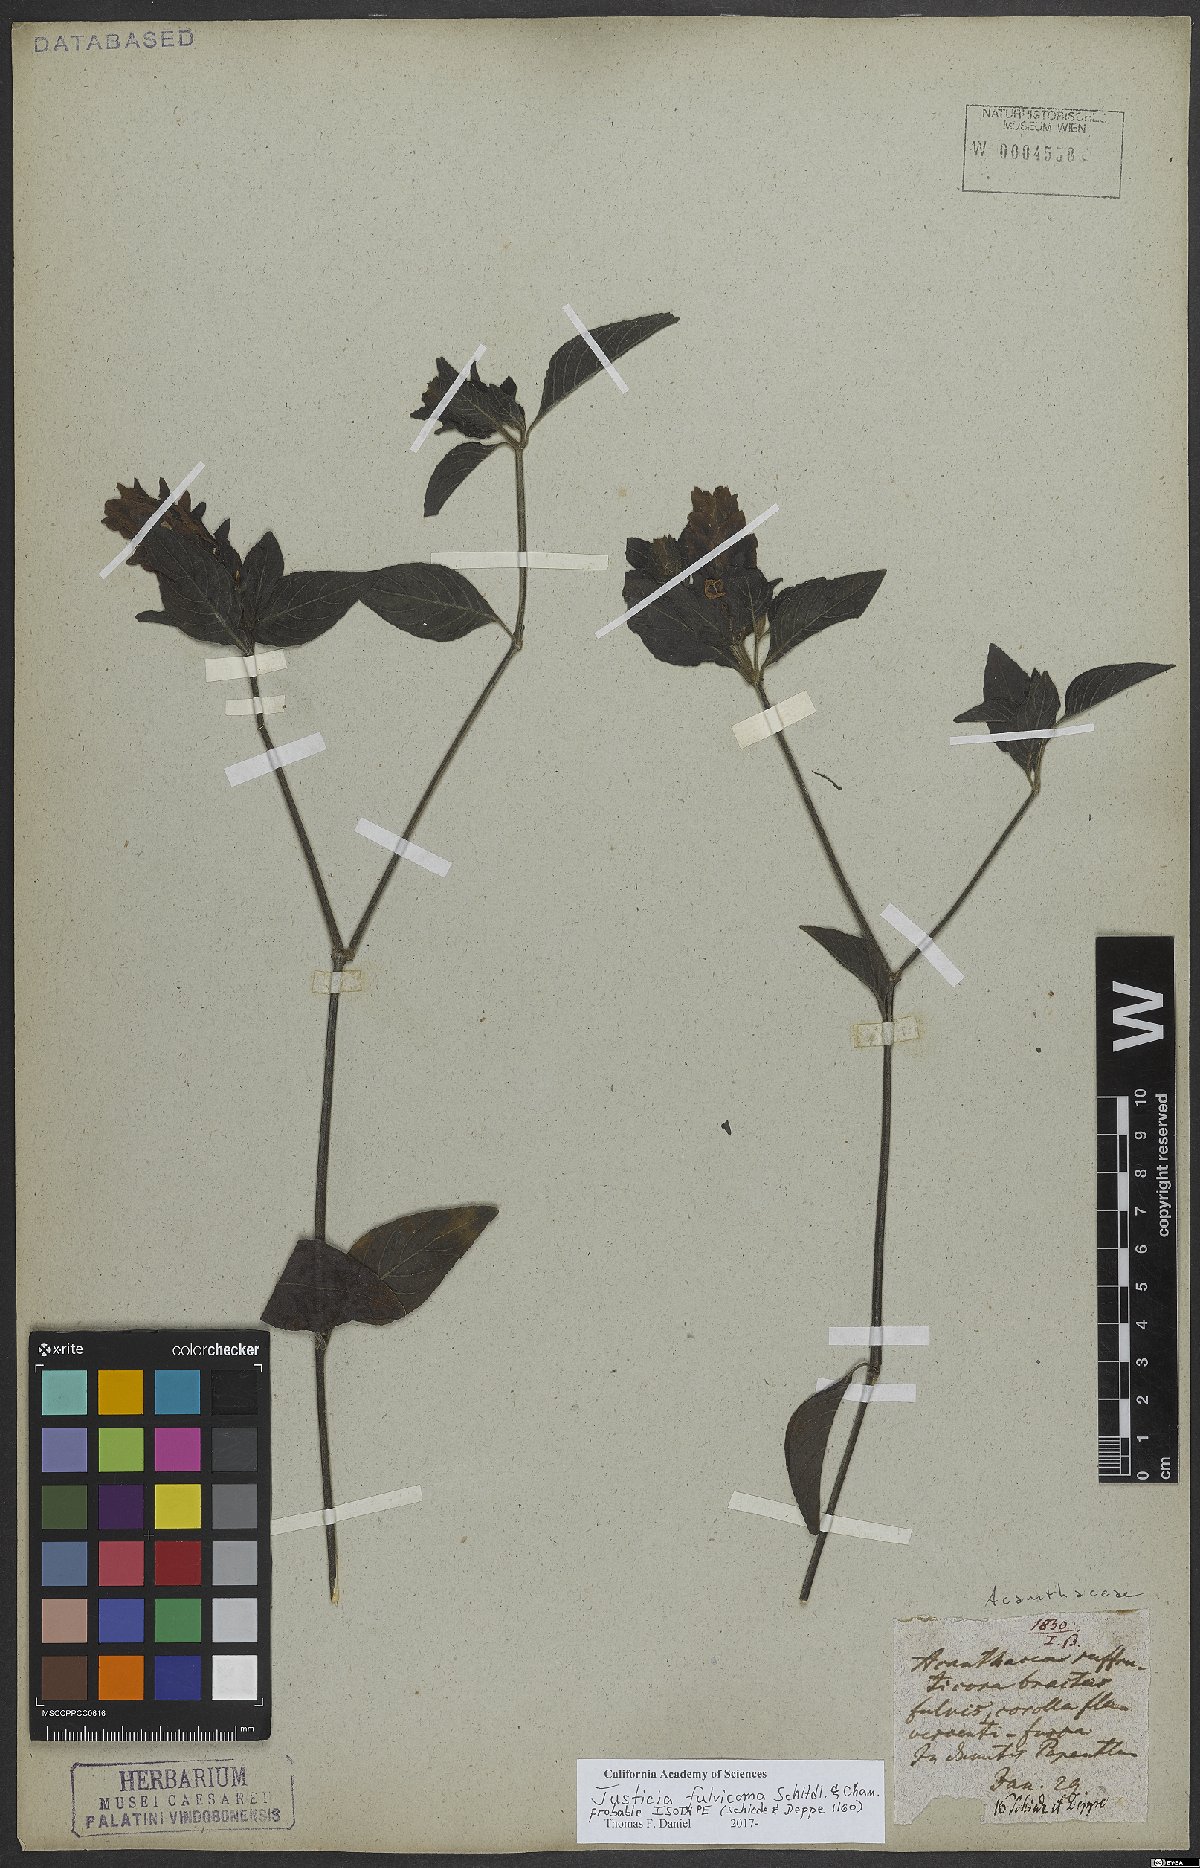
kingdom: Plantae
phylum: Tracheophyta
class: Magnoliopsida
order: Lamiales
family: Acanthaceae
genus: Justicia
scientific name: Justicia fulvicoma
